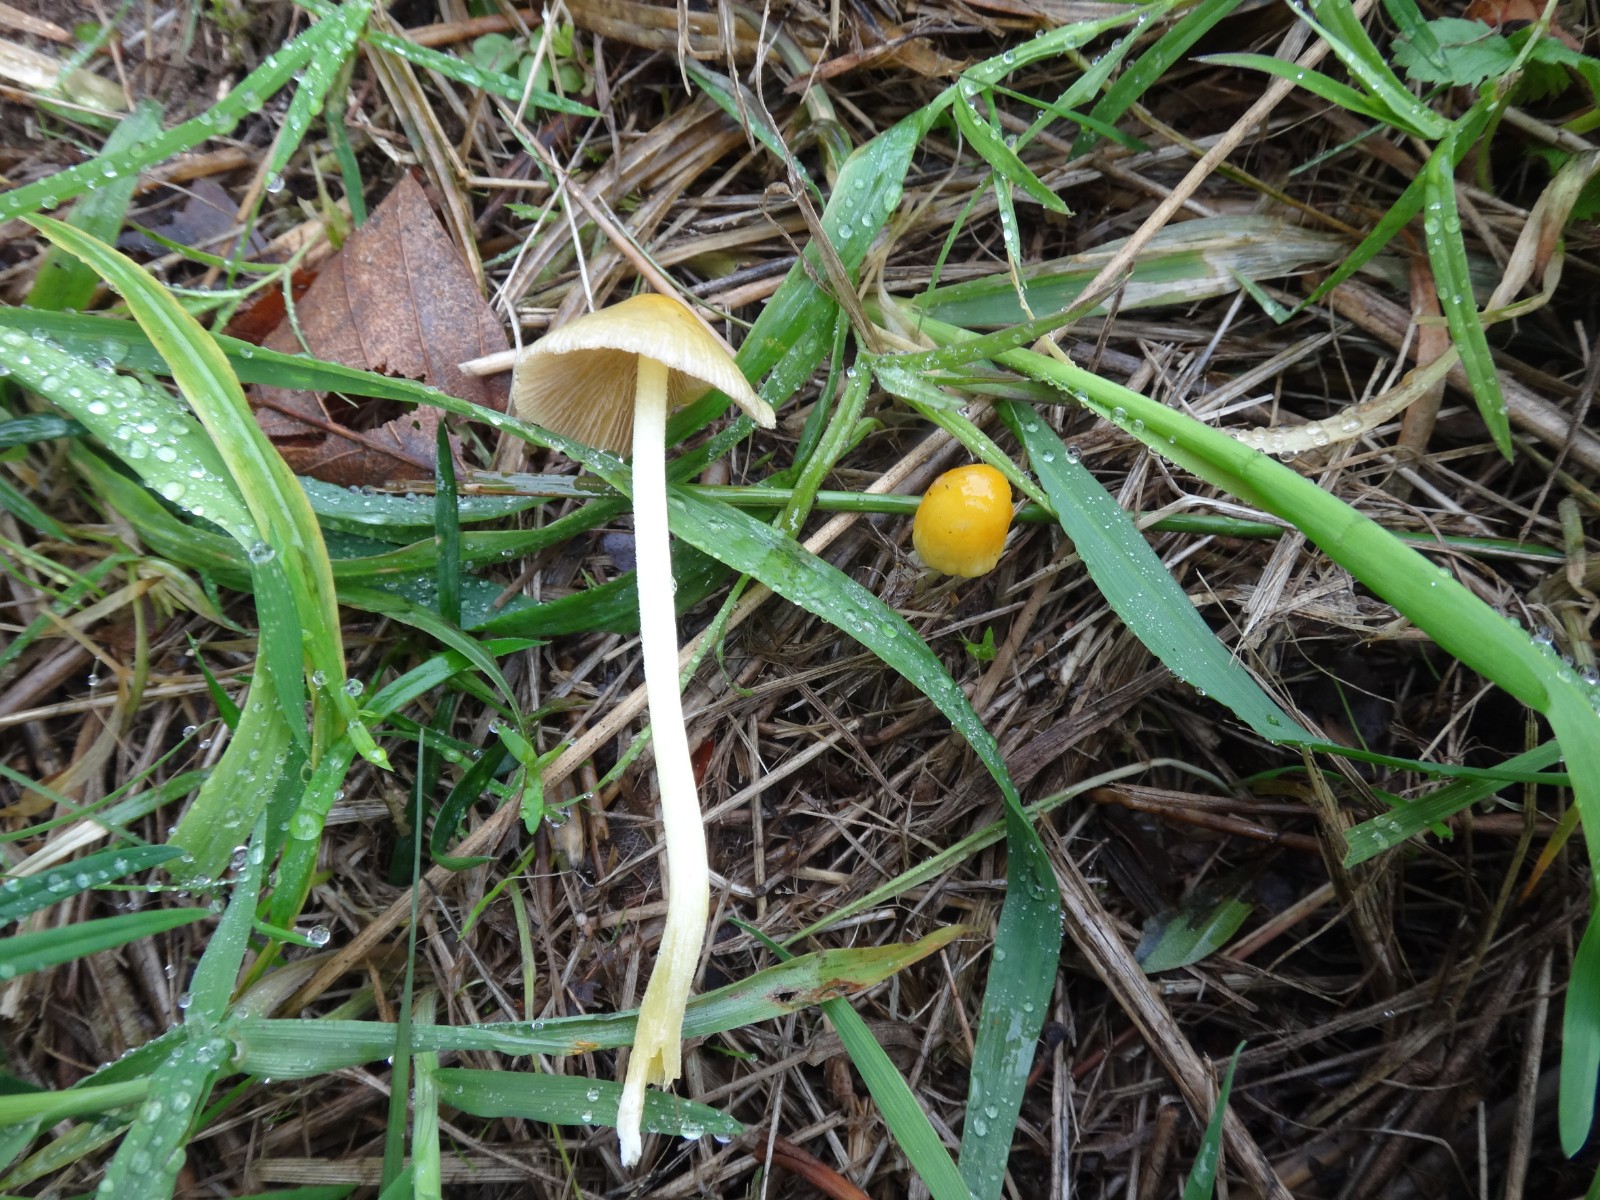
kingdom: Fungi
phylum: Basidiomycota
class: Agaricomycetes
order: Agaricales
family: Bolbitiaceae
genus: Bolbitius
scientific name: Bolbitius titubans
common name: almindelig gulhat
